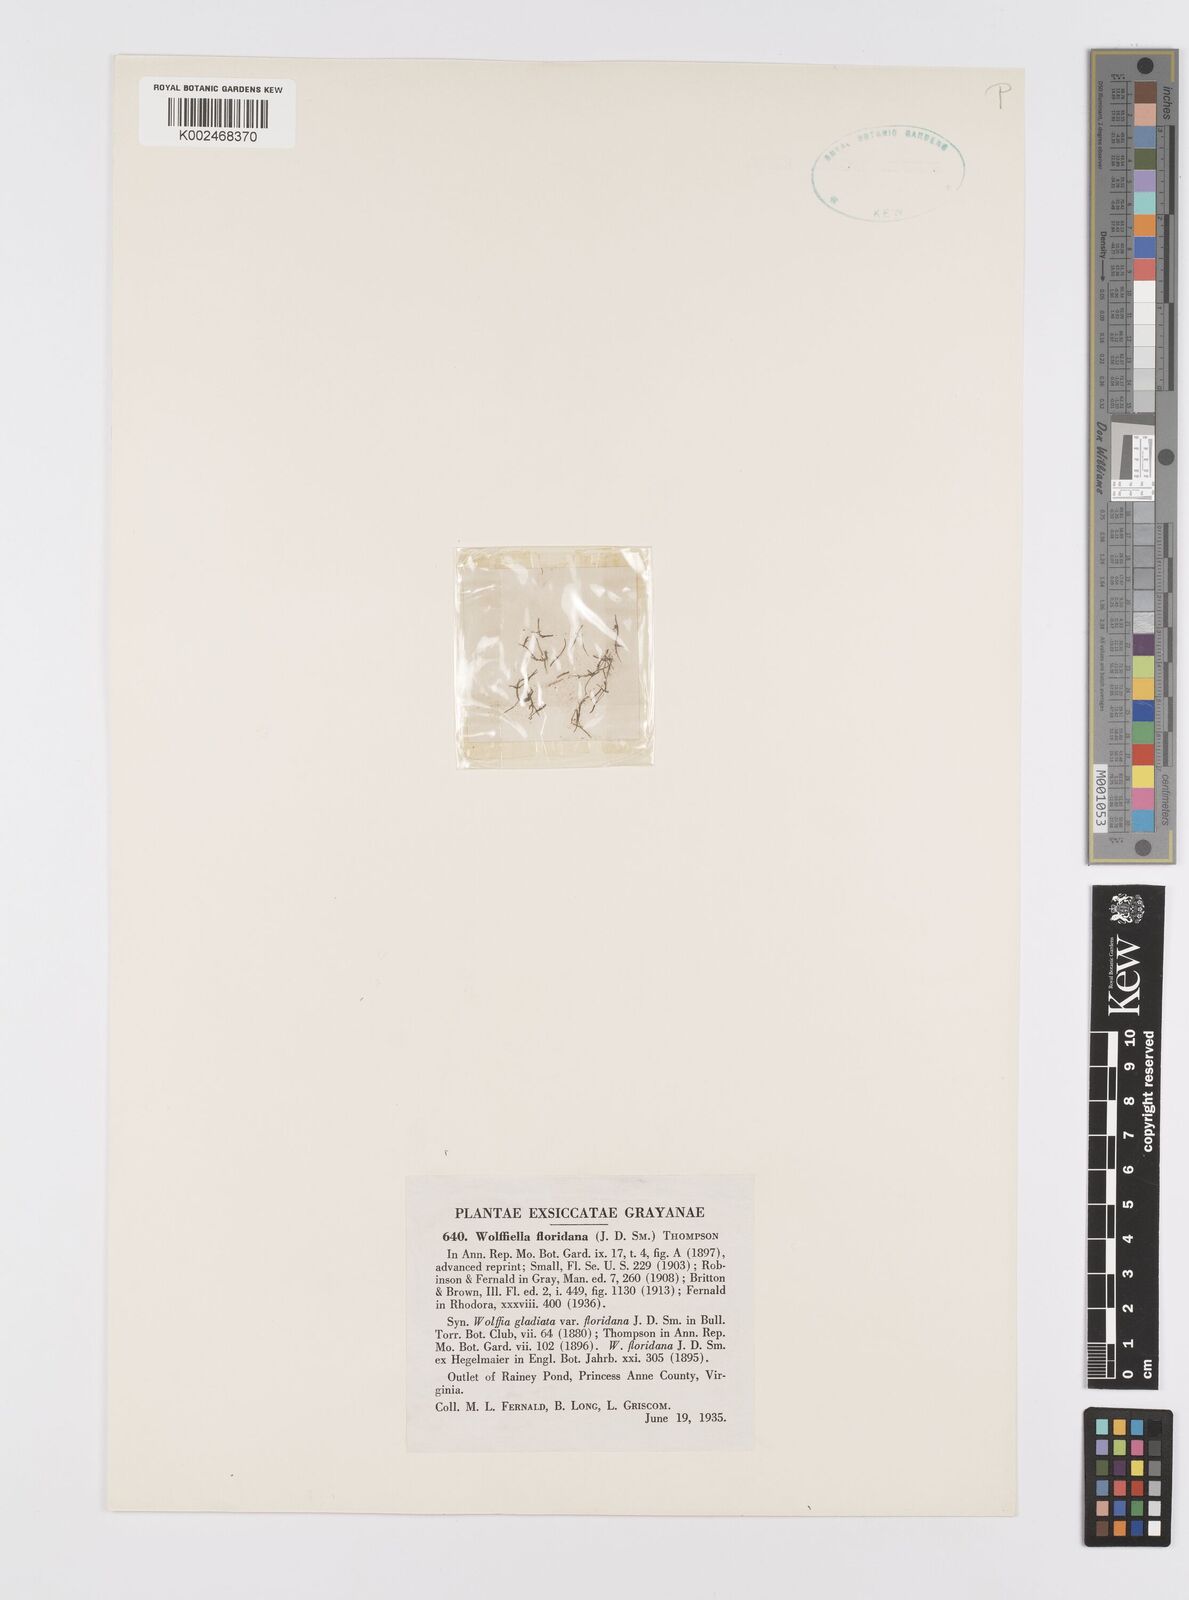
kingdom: Plantae
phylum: Tracheophyta
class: Liliopsida
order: Alismatales
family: Araceae
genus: Wolffiella
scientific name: Wolffiella gladiata
